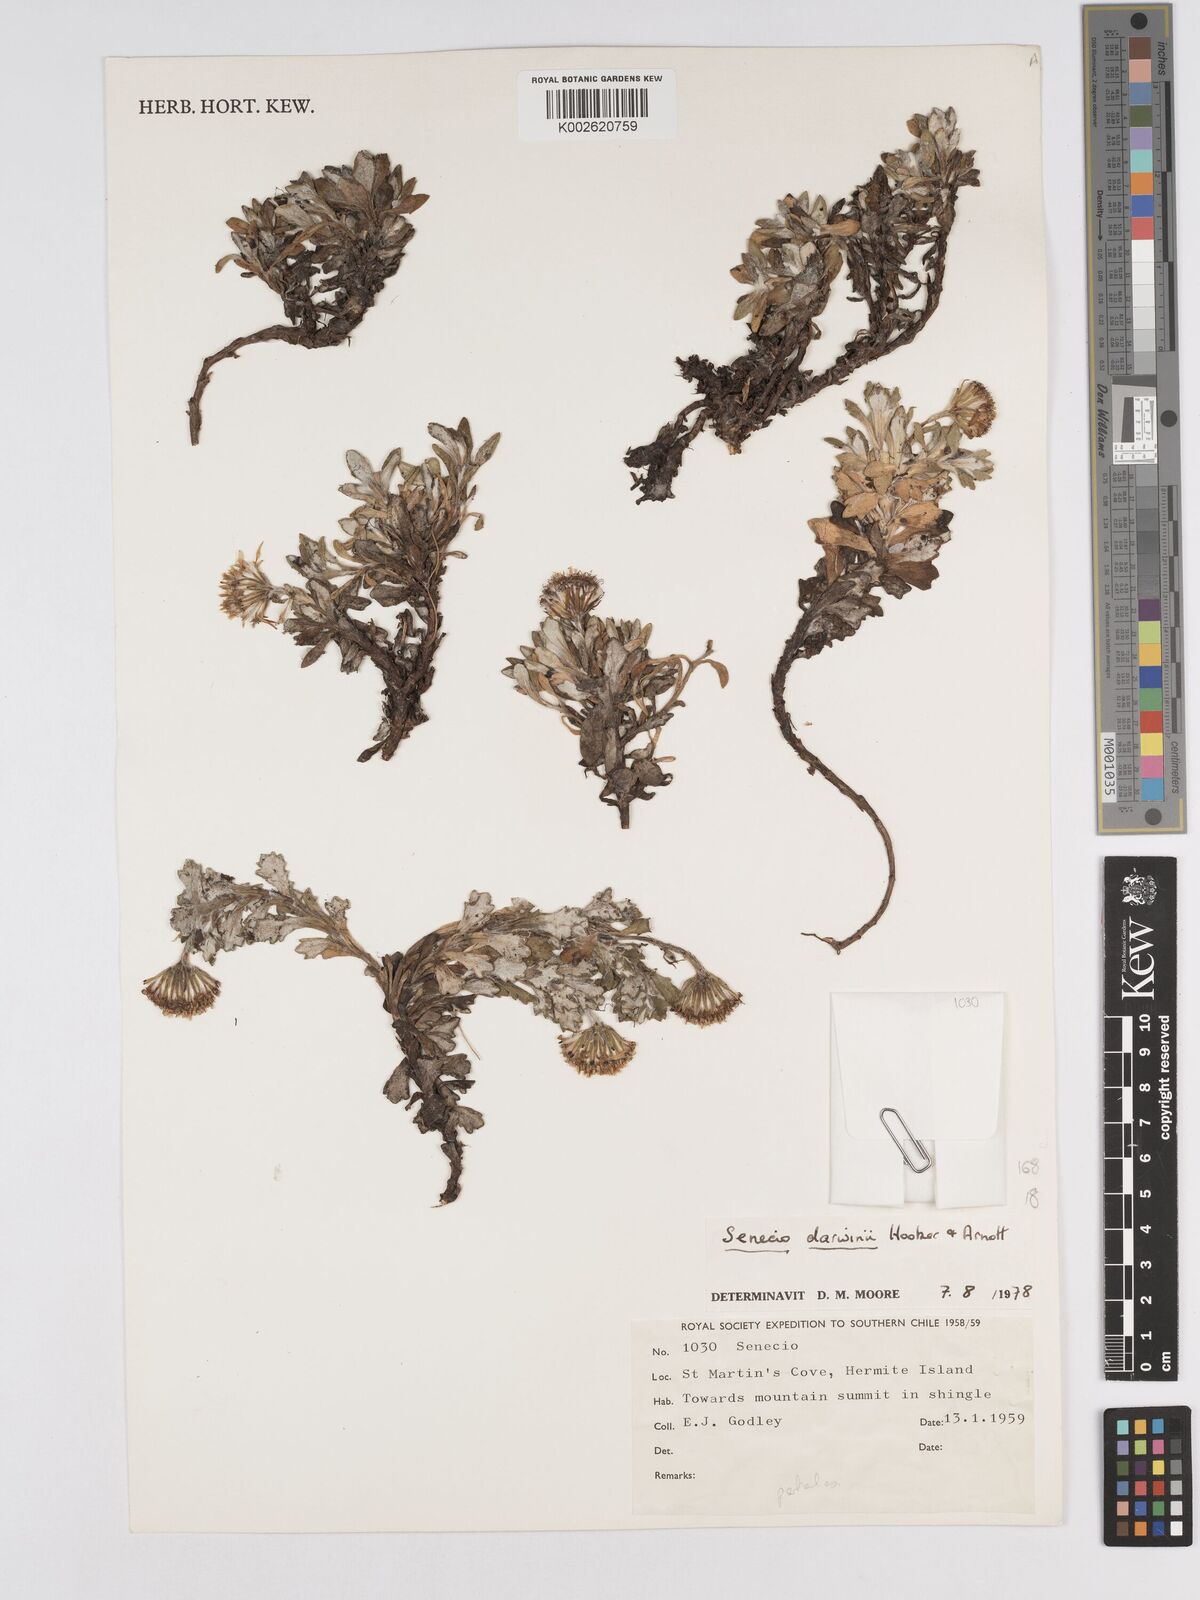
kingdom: Plantae
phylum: Tracheophyta
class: Magnoliopsida
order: Asterales
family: Asteraceae
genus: Senecio
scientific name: Senecio darwinii
